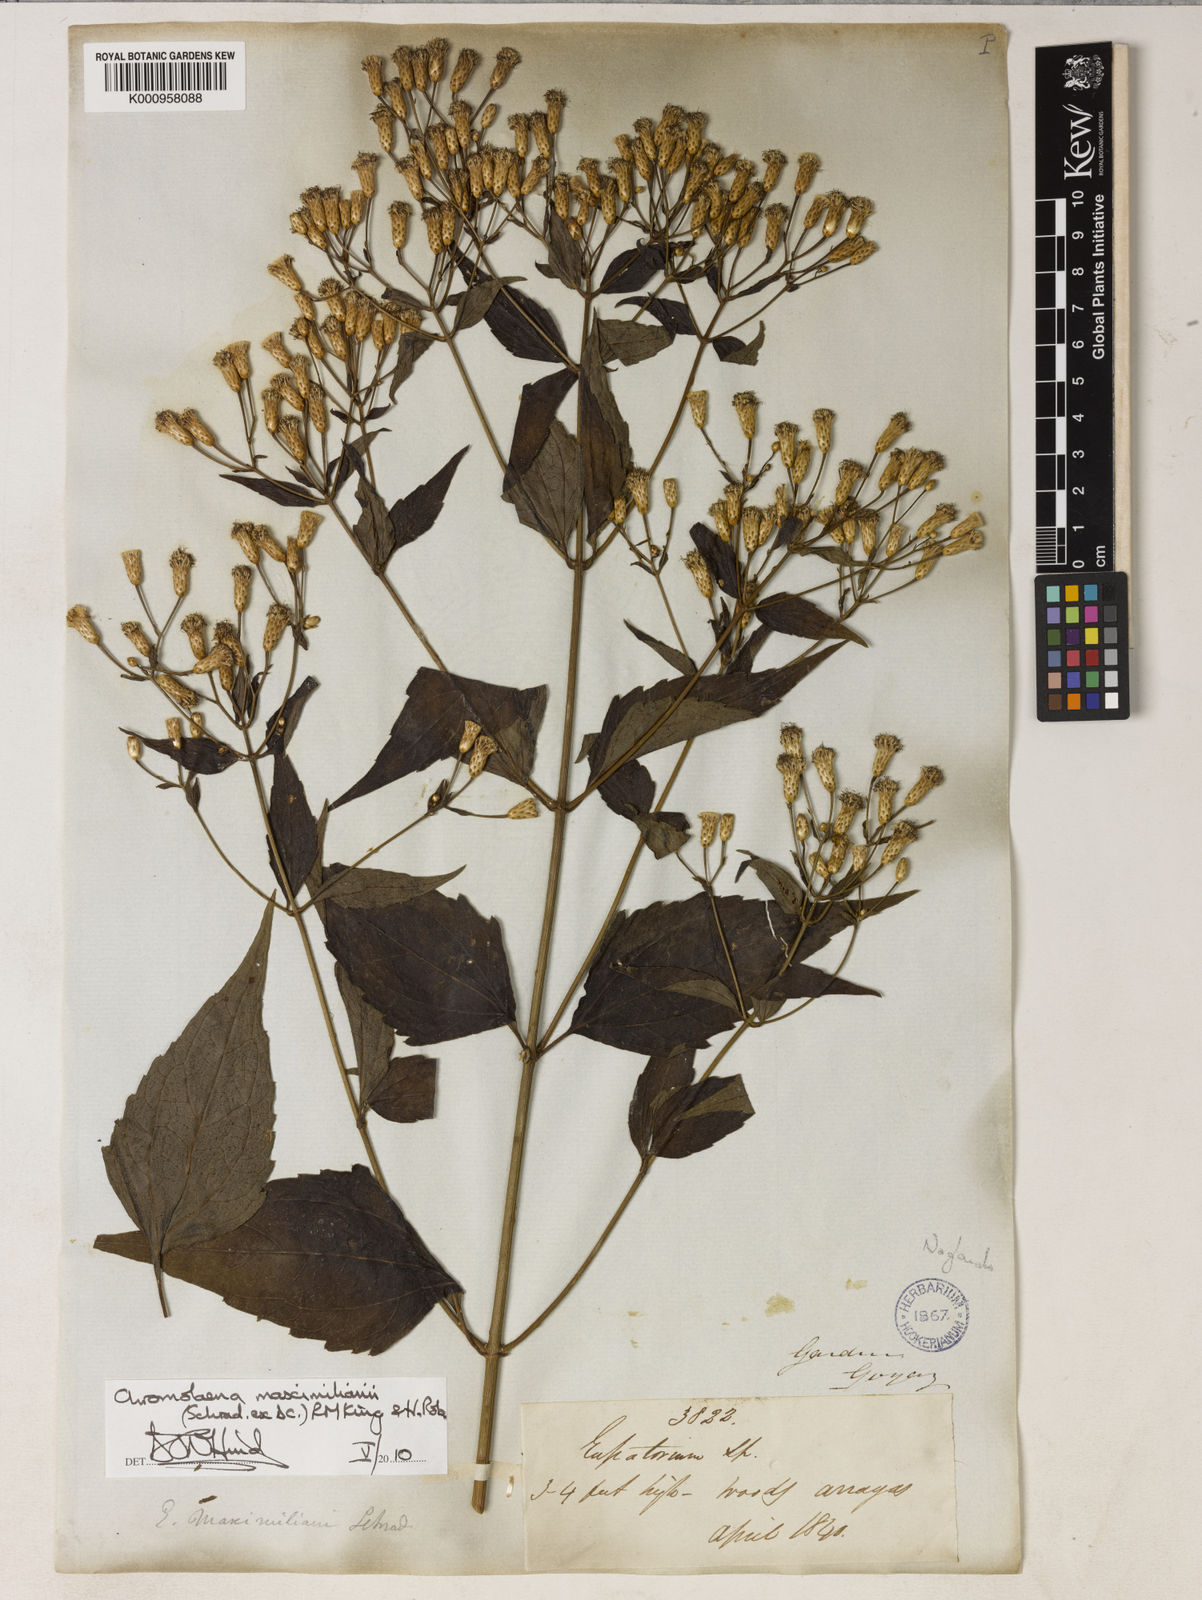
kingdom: Plantae
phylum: Tracheophyta
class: Magnoliopsida
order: Asterales
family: Asteraceae
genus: Chromolaena
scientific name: Chromolaena maximiliani
